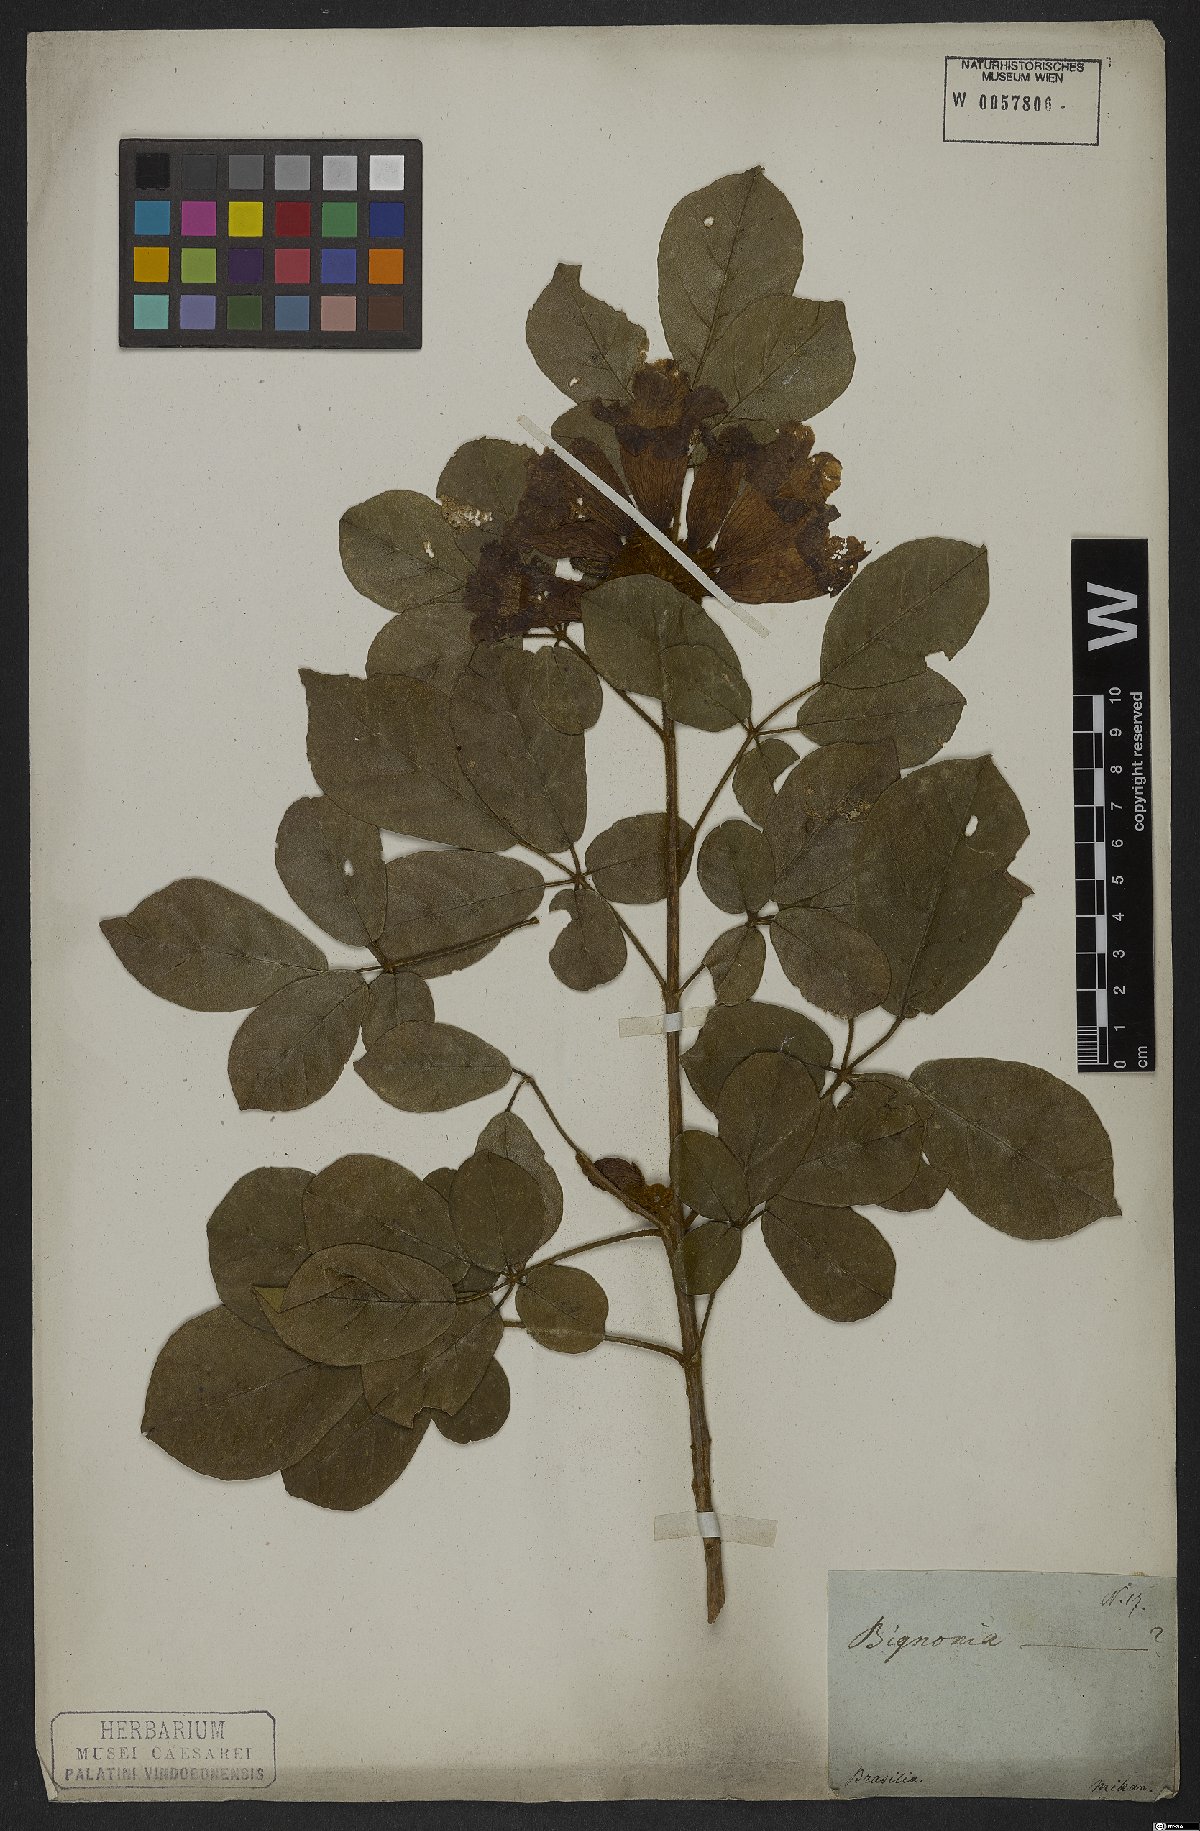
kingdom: Plantae
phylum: Tracheophyta
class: Magnoliopsida
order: Lamiales
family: Bignoniaceae
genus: Handroanthus
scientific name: Handroanthus chrysotrichus
